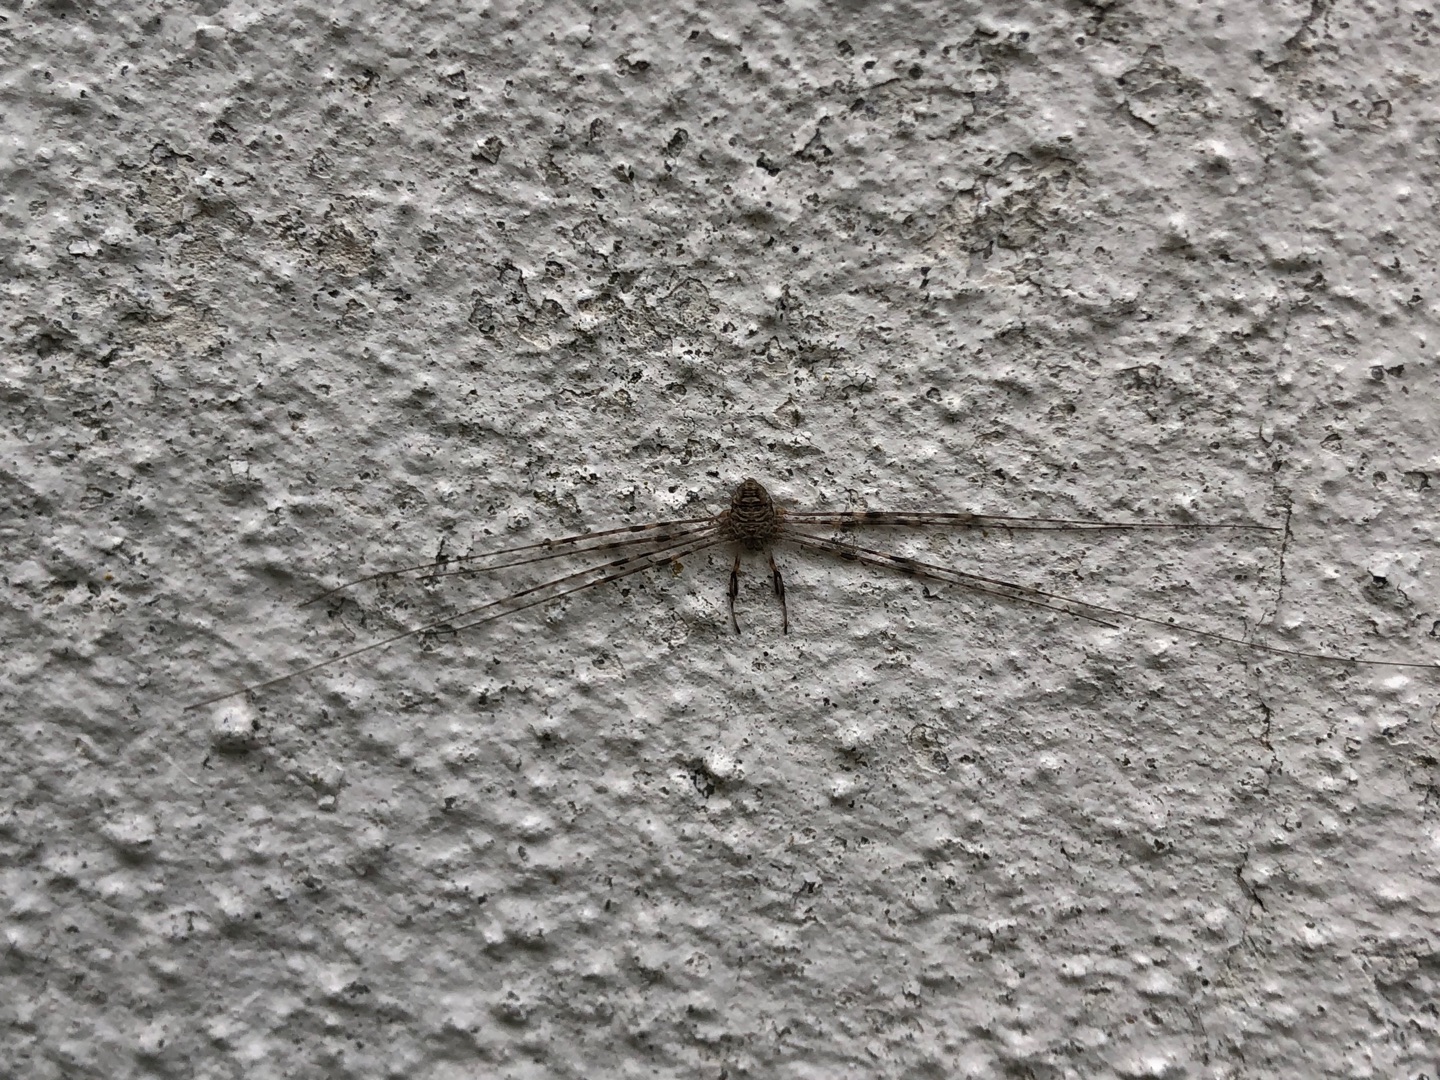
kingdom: Animalia
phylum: Arthropoda
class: Arachnida
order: Opiliones
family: Phalangiidae
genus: Dicranopalpus
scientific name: Dicranopalpus ramosus
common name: Gaffelmejer
